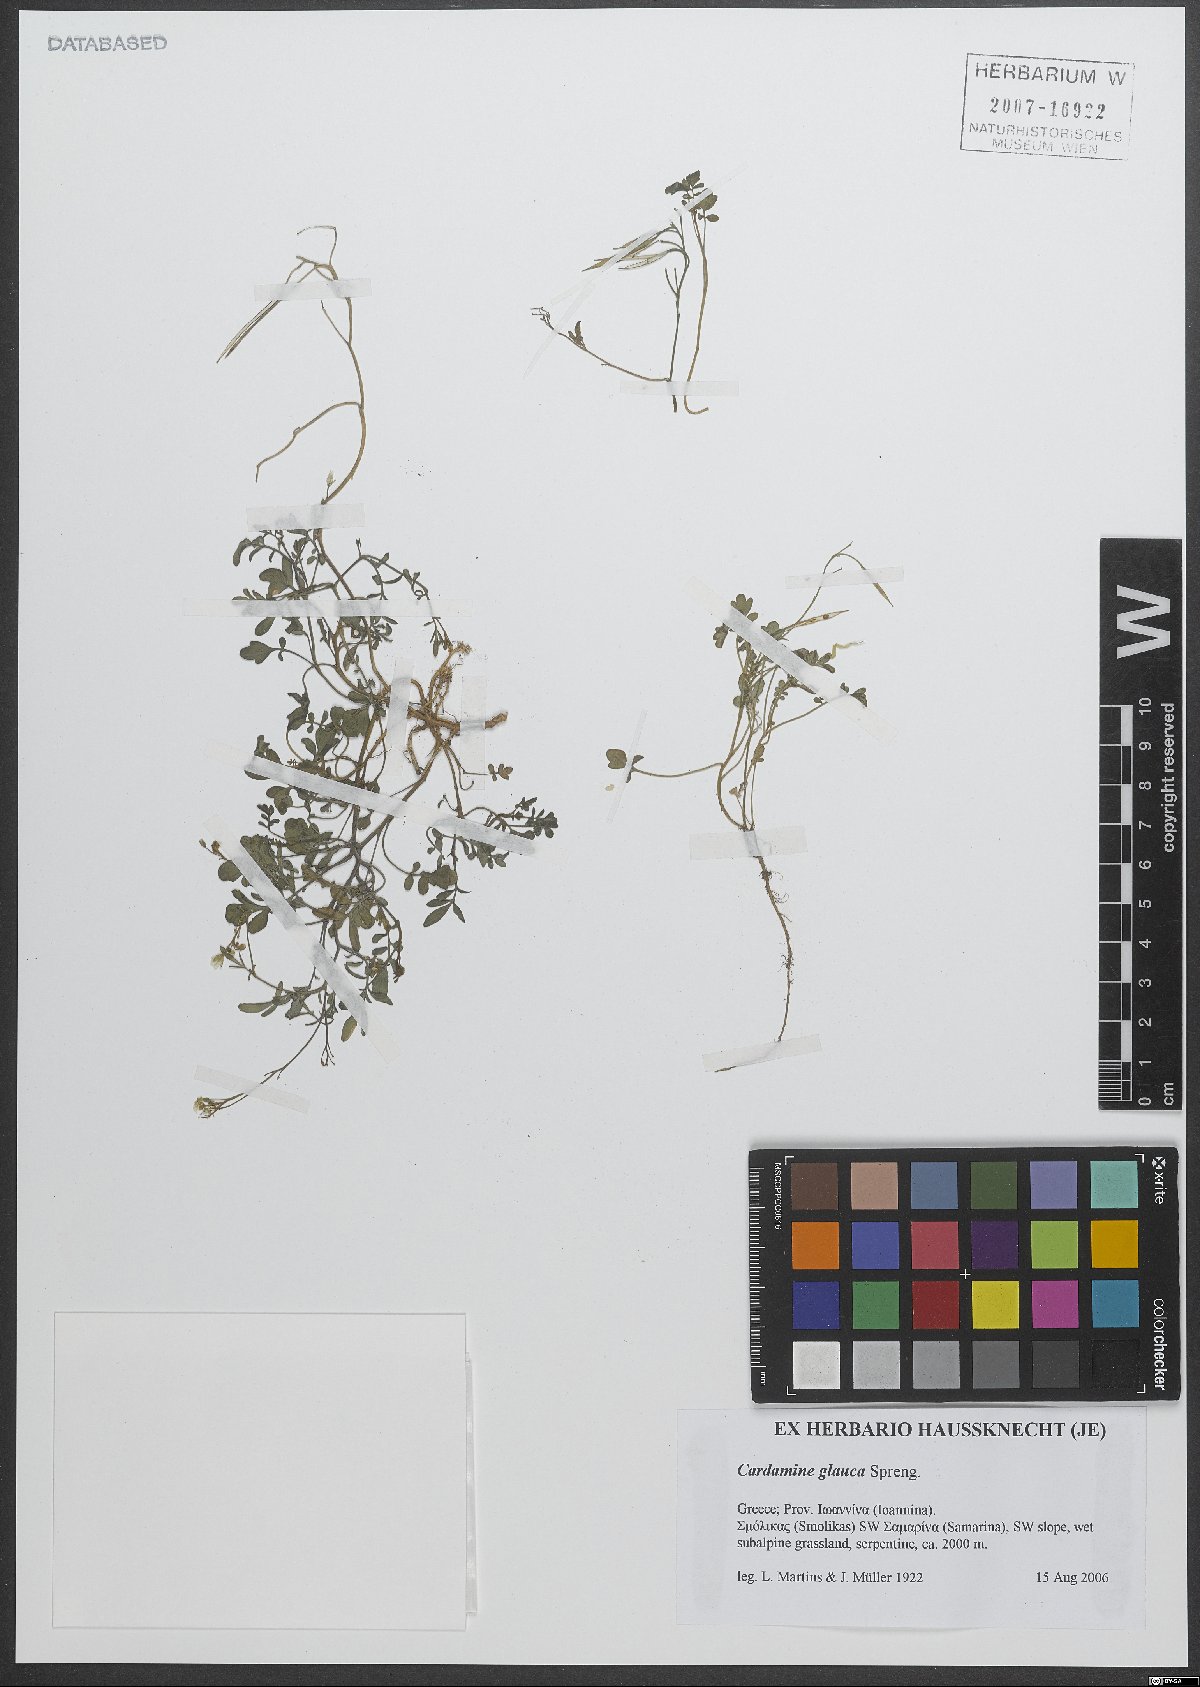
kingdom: Plantae
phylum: Tracheophyta
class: Magnoliopsida
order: Brassicales
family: Brassicaceae
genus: Cardamine
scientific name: Cardamine glauca
